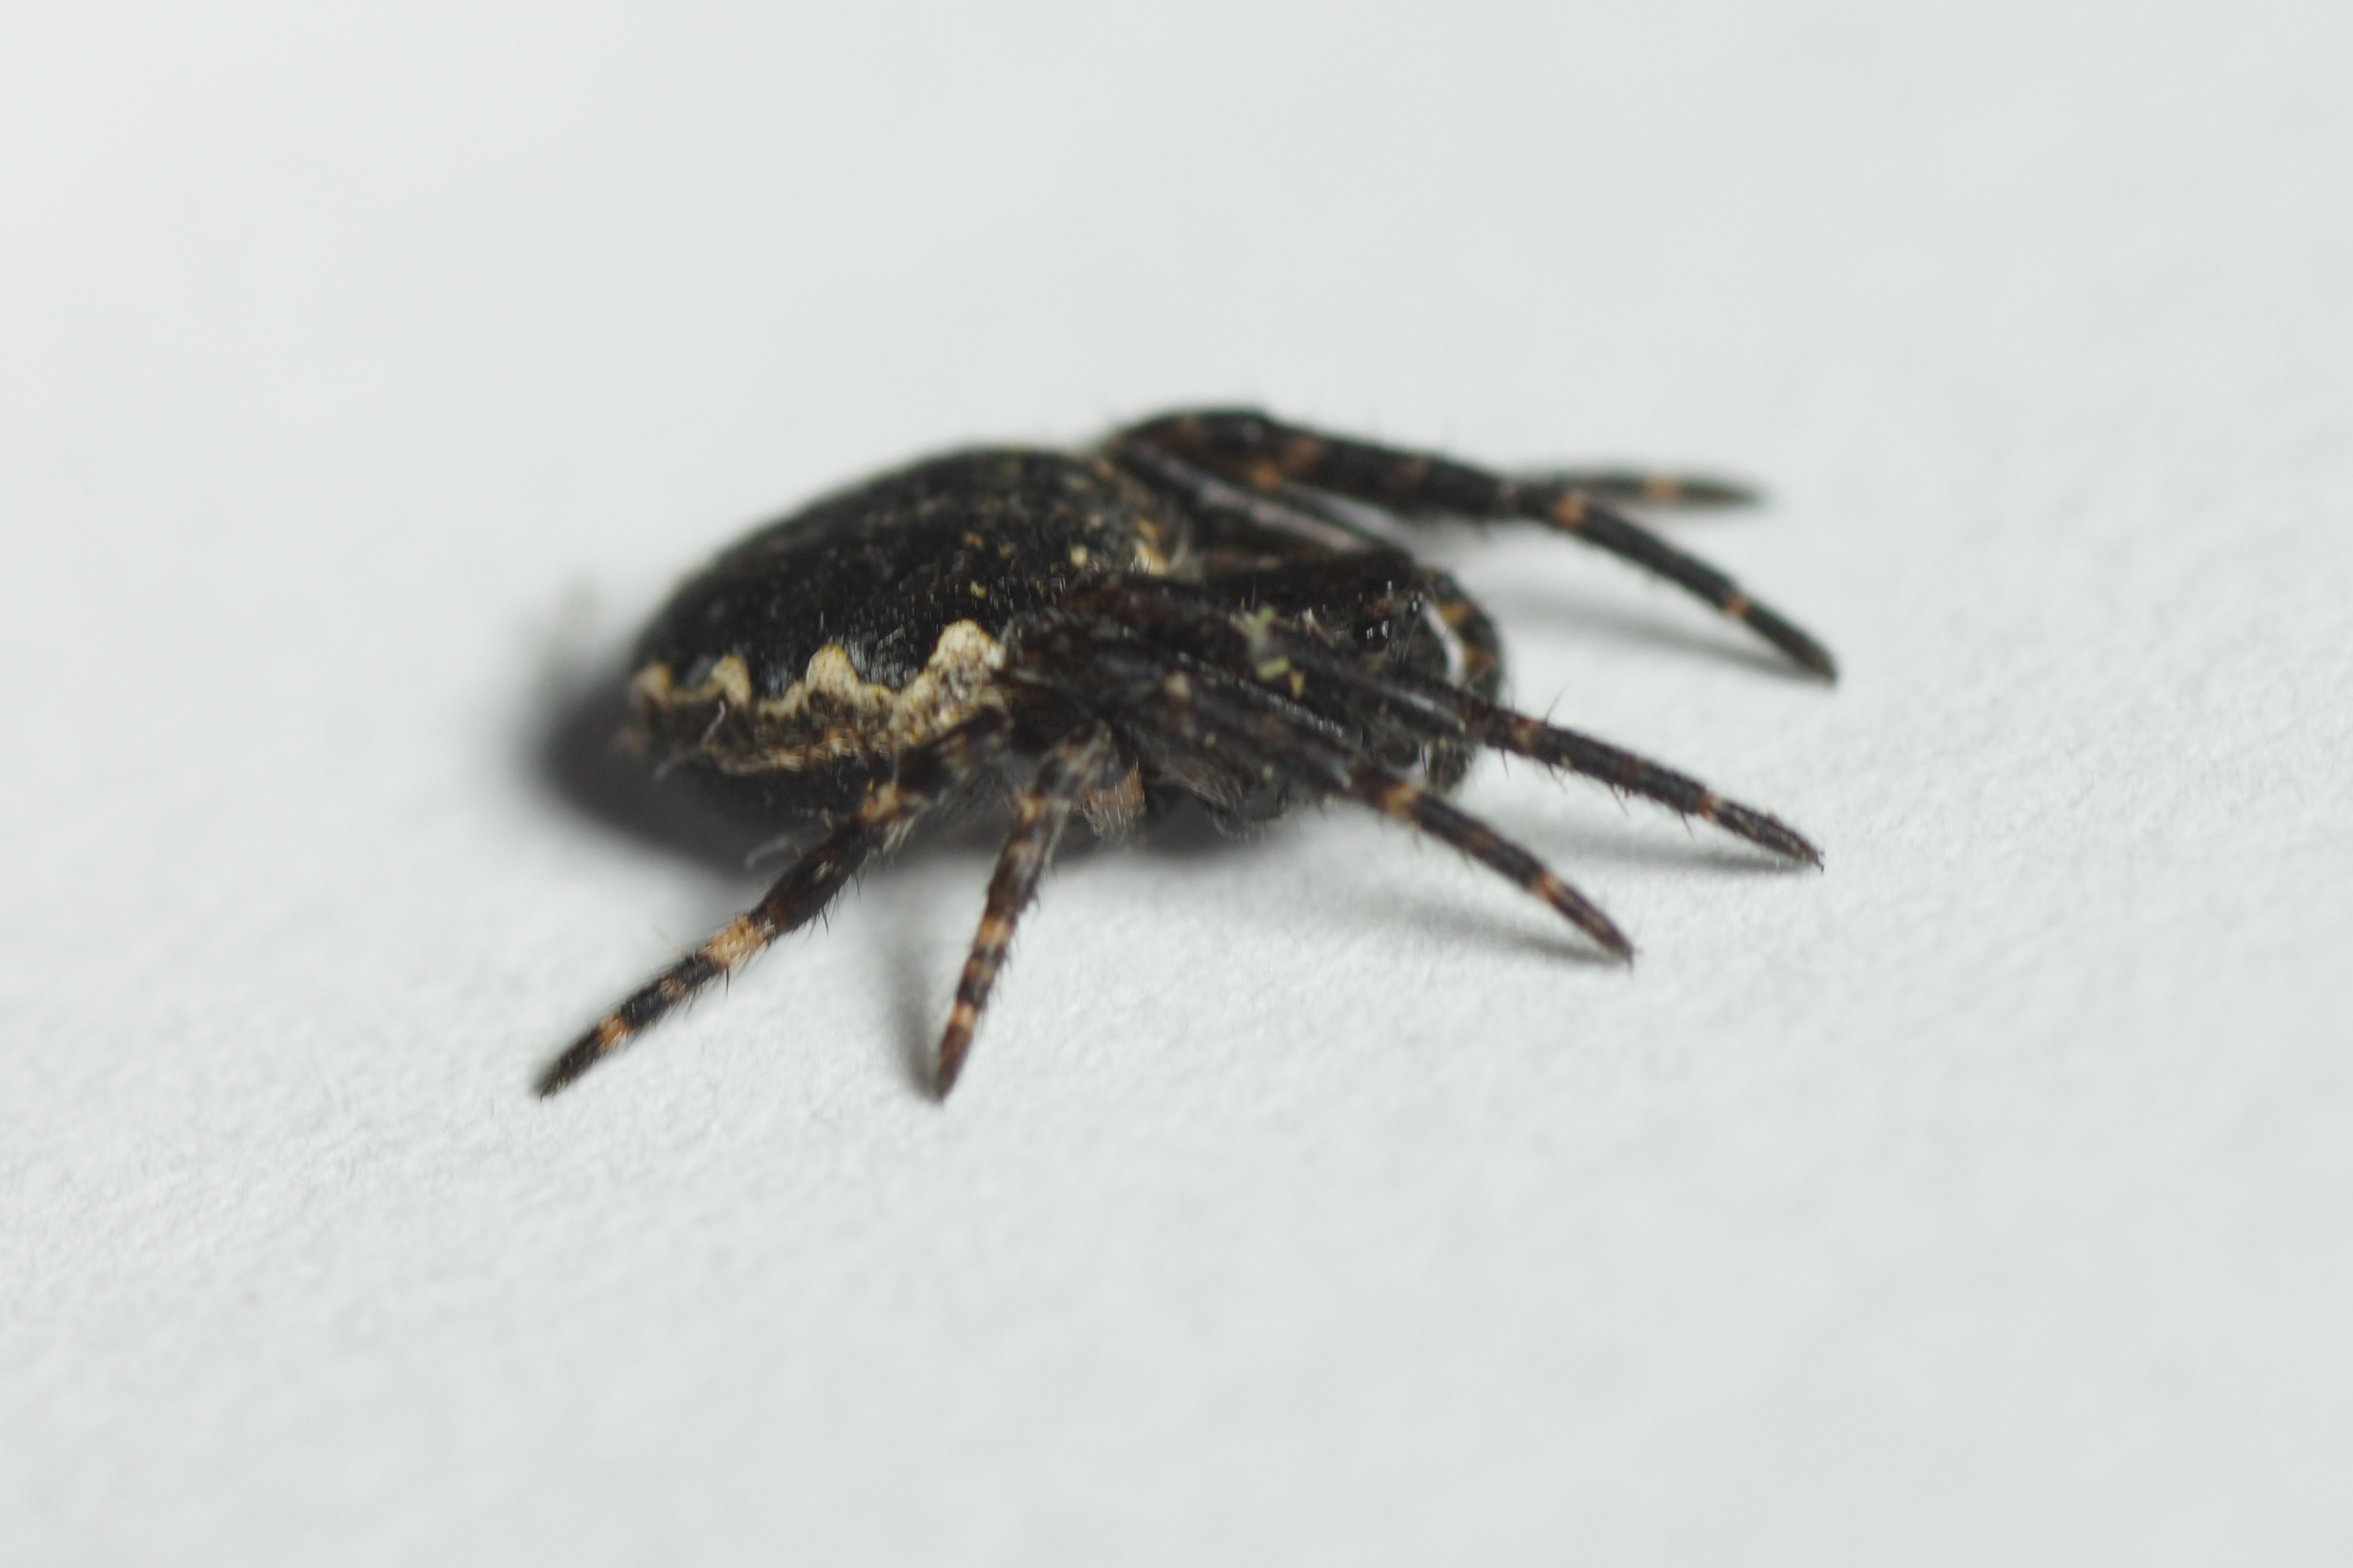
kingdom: Animalia
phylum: Arthropoda
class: Arachnida
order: Araneae
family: Araneidae
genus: Nuctenea
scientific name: Nuctenea umbratica
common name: Flad hjulspinder
